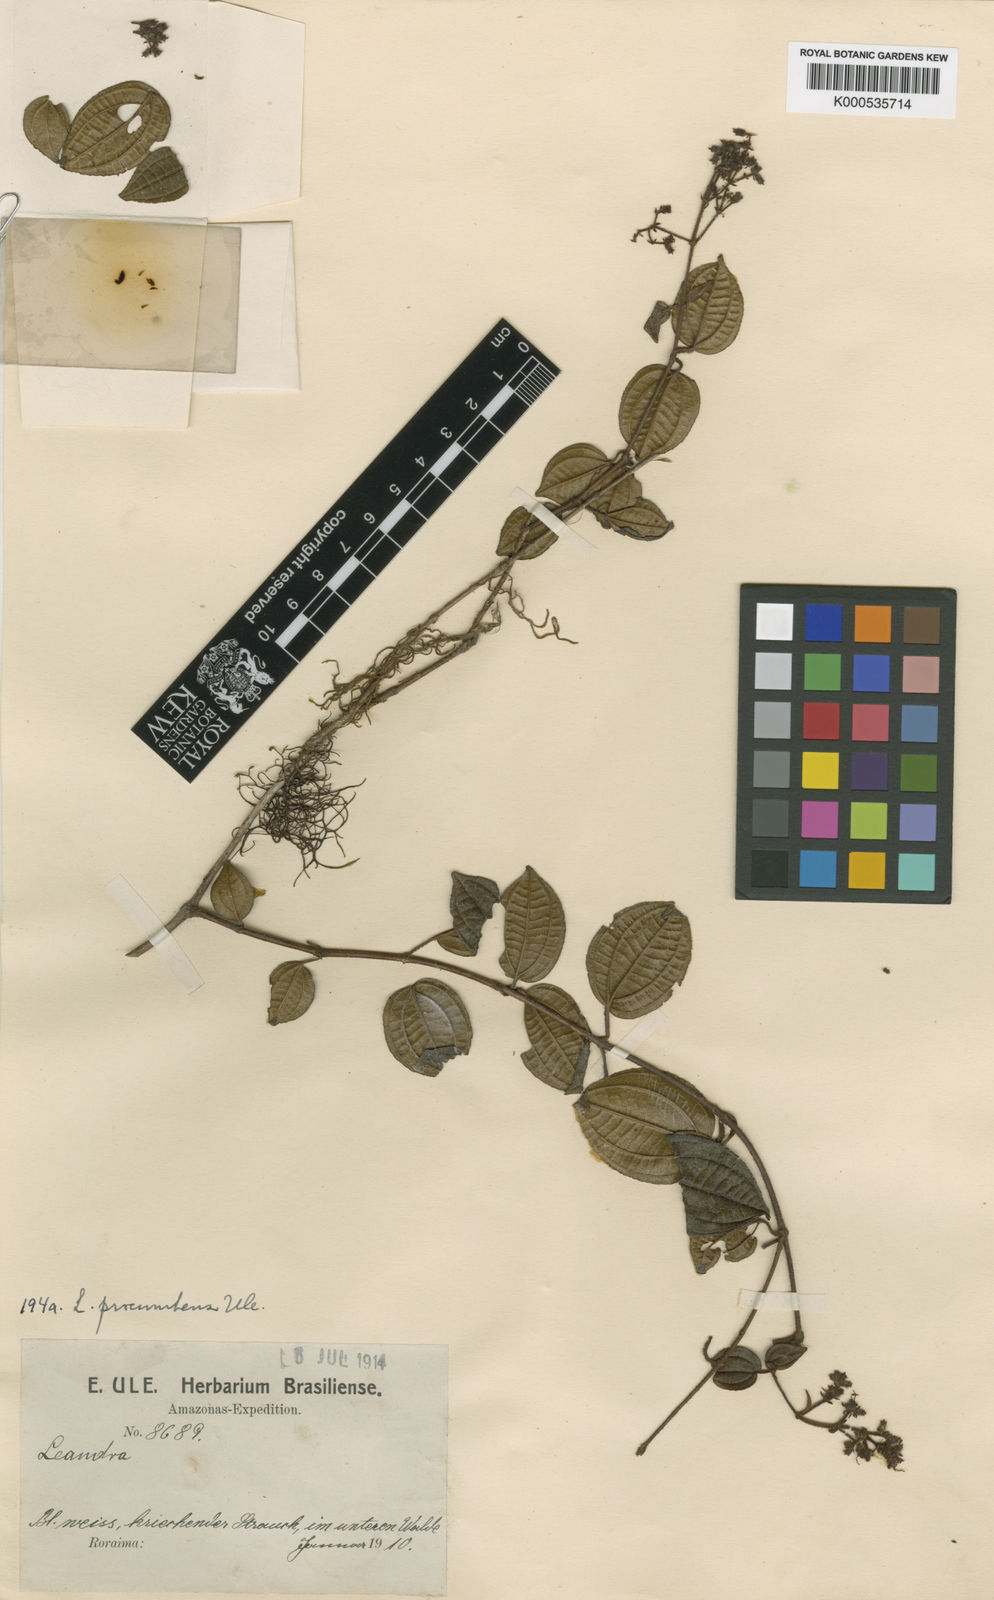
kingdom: Plantae
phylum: Tracheophyta
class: Magnoliopsida
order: Myrtales
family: Melastomataceae
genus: Miconia
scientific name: Miconia chimantensis
